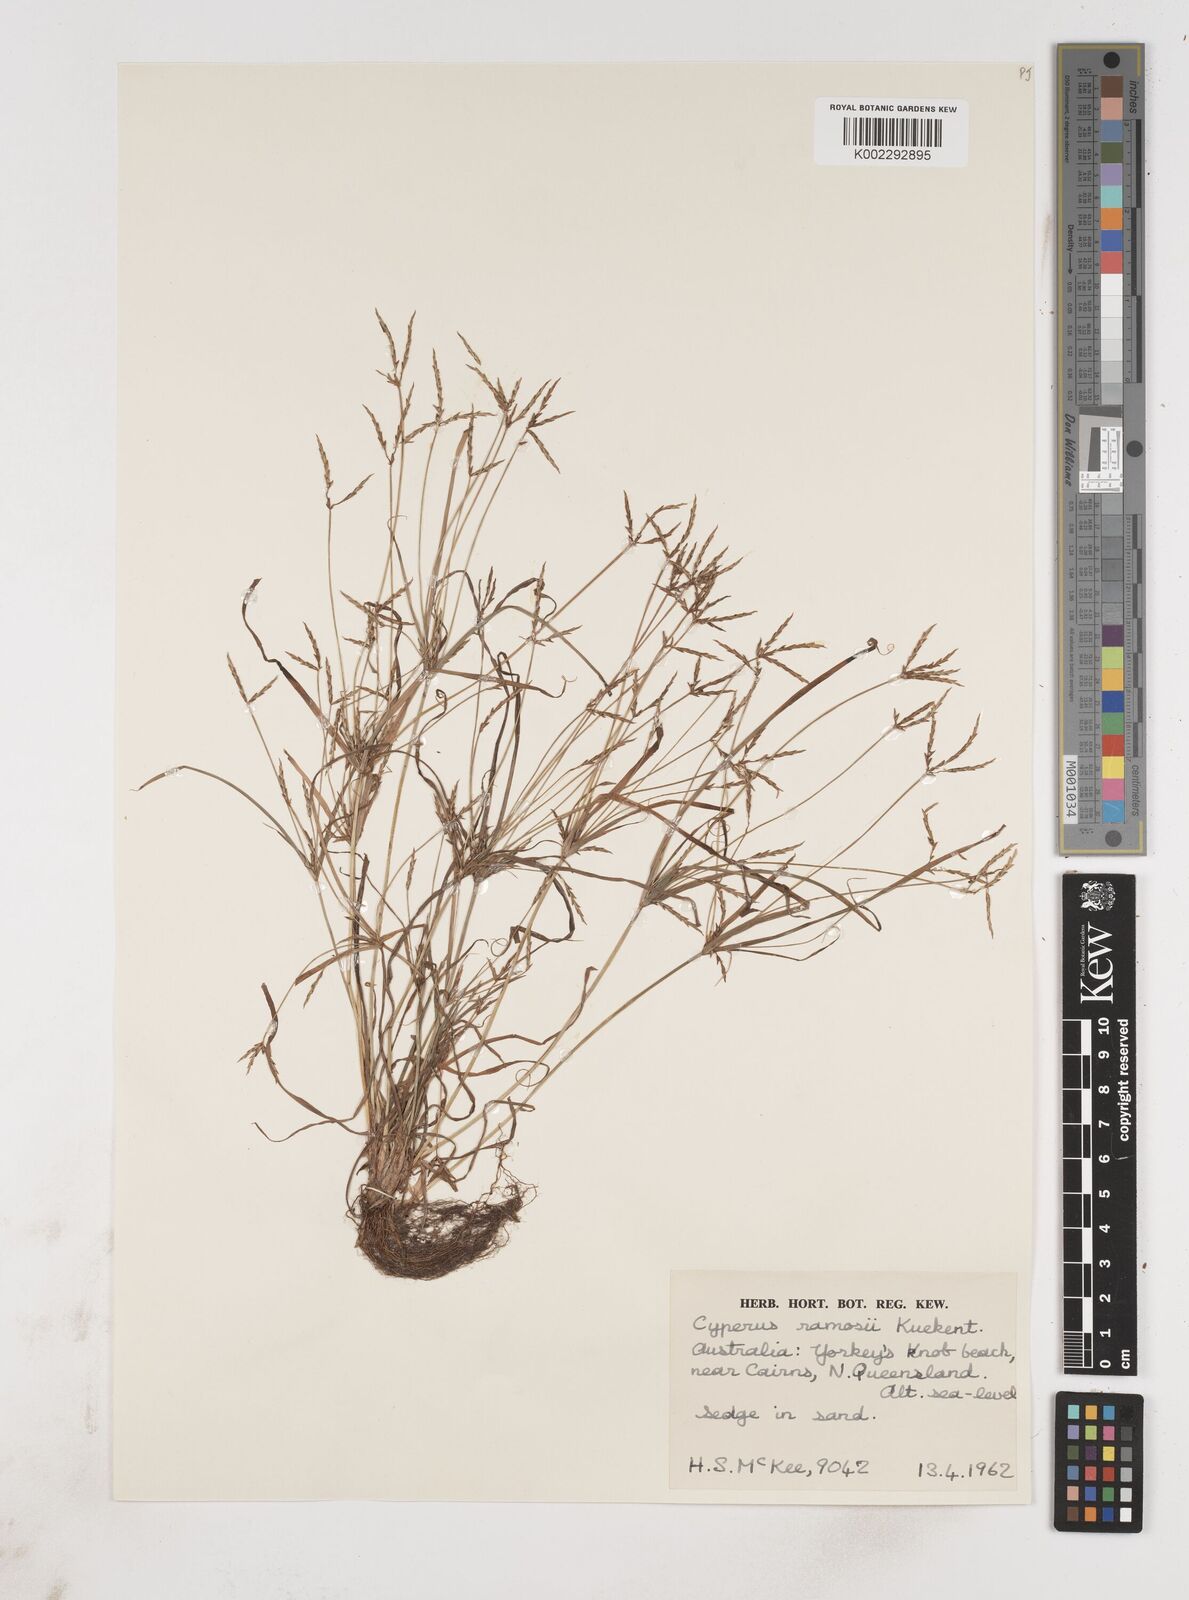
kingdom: Plantae
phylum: Tracheophyta
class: Liliopsida
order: Poales
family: Cyperaceae
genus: Cyperus
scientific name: Cyperus zollingeri
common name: Roadside flatsedge
